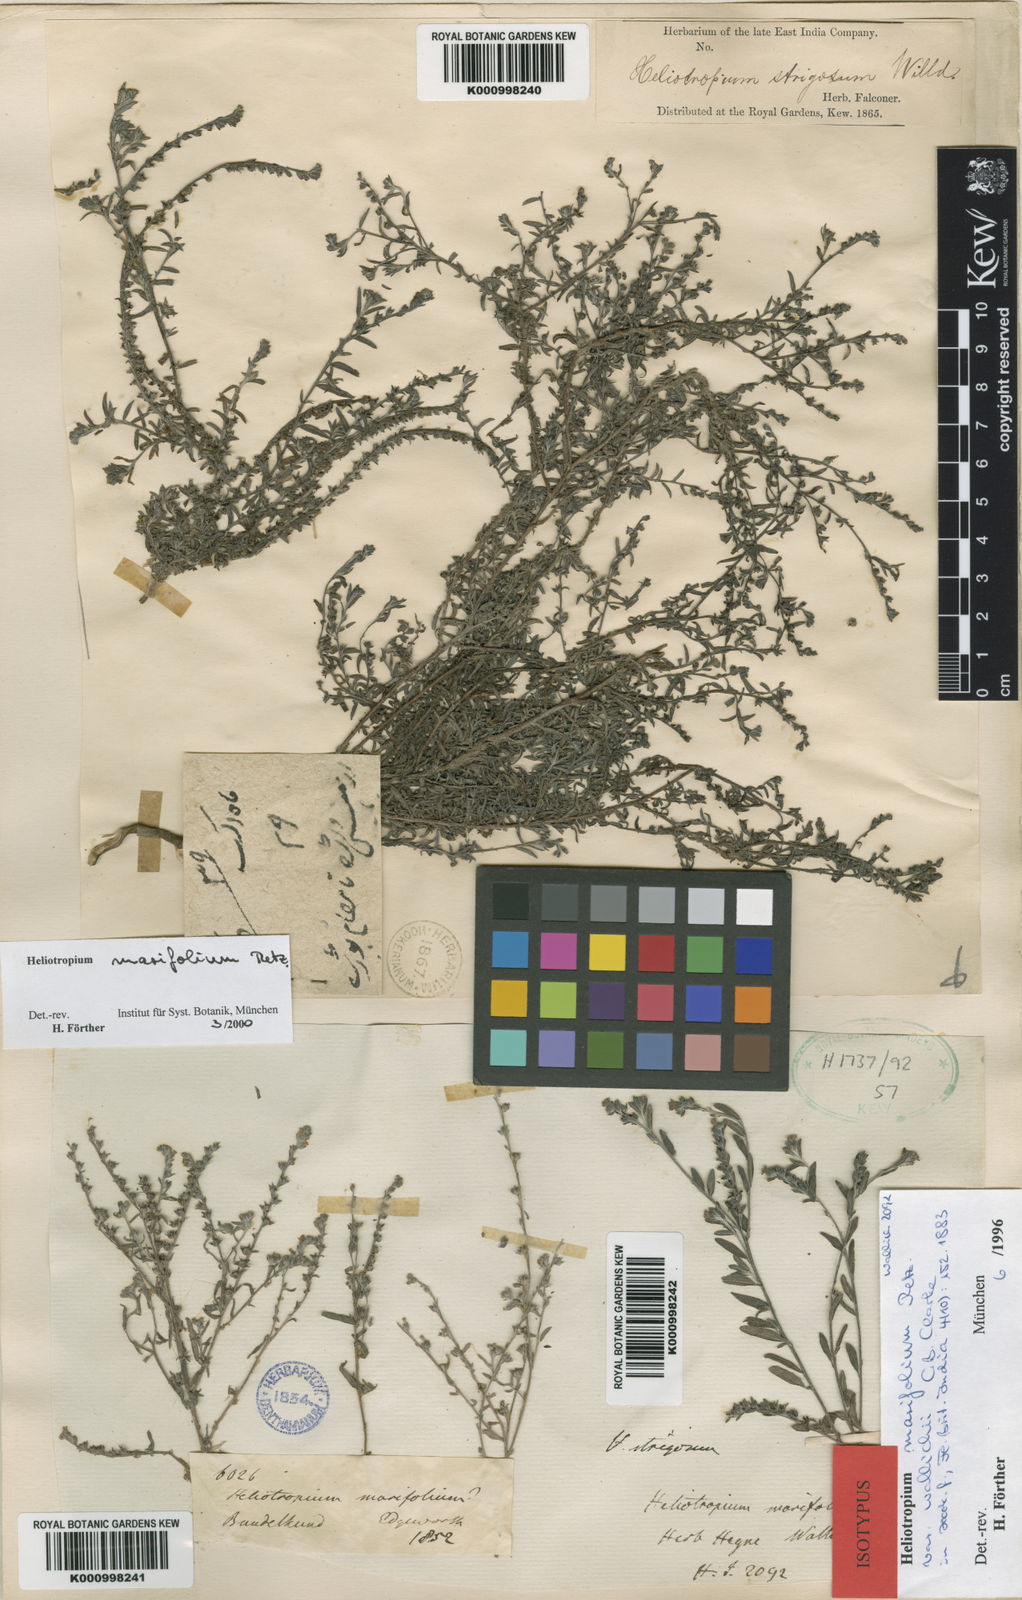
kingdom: Plantae
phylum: Tracheophyta
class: Magnoliopsida
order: Boraginales
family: Heliotropiaceae
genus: Euploca
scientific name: Euploca marifolia
